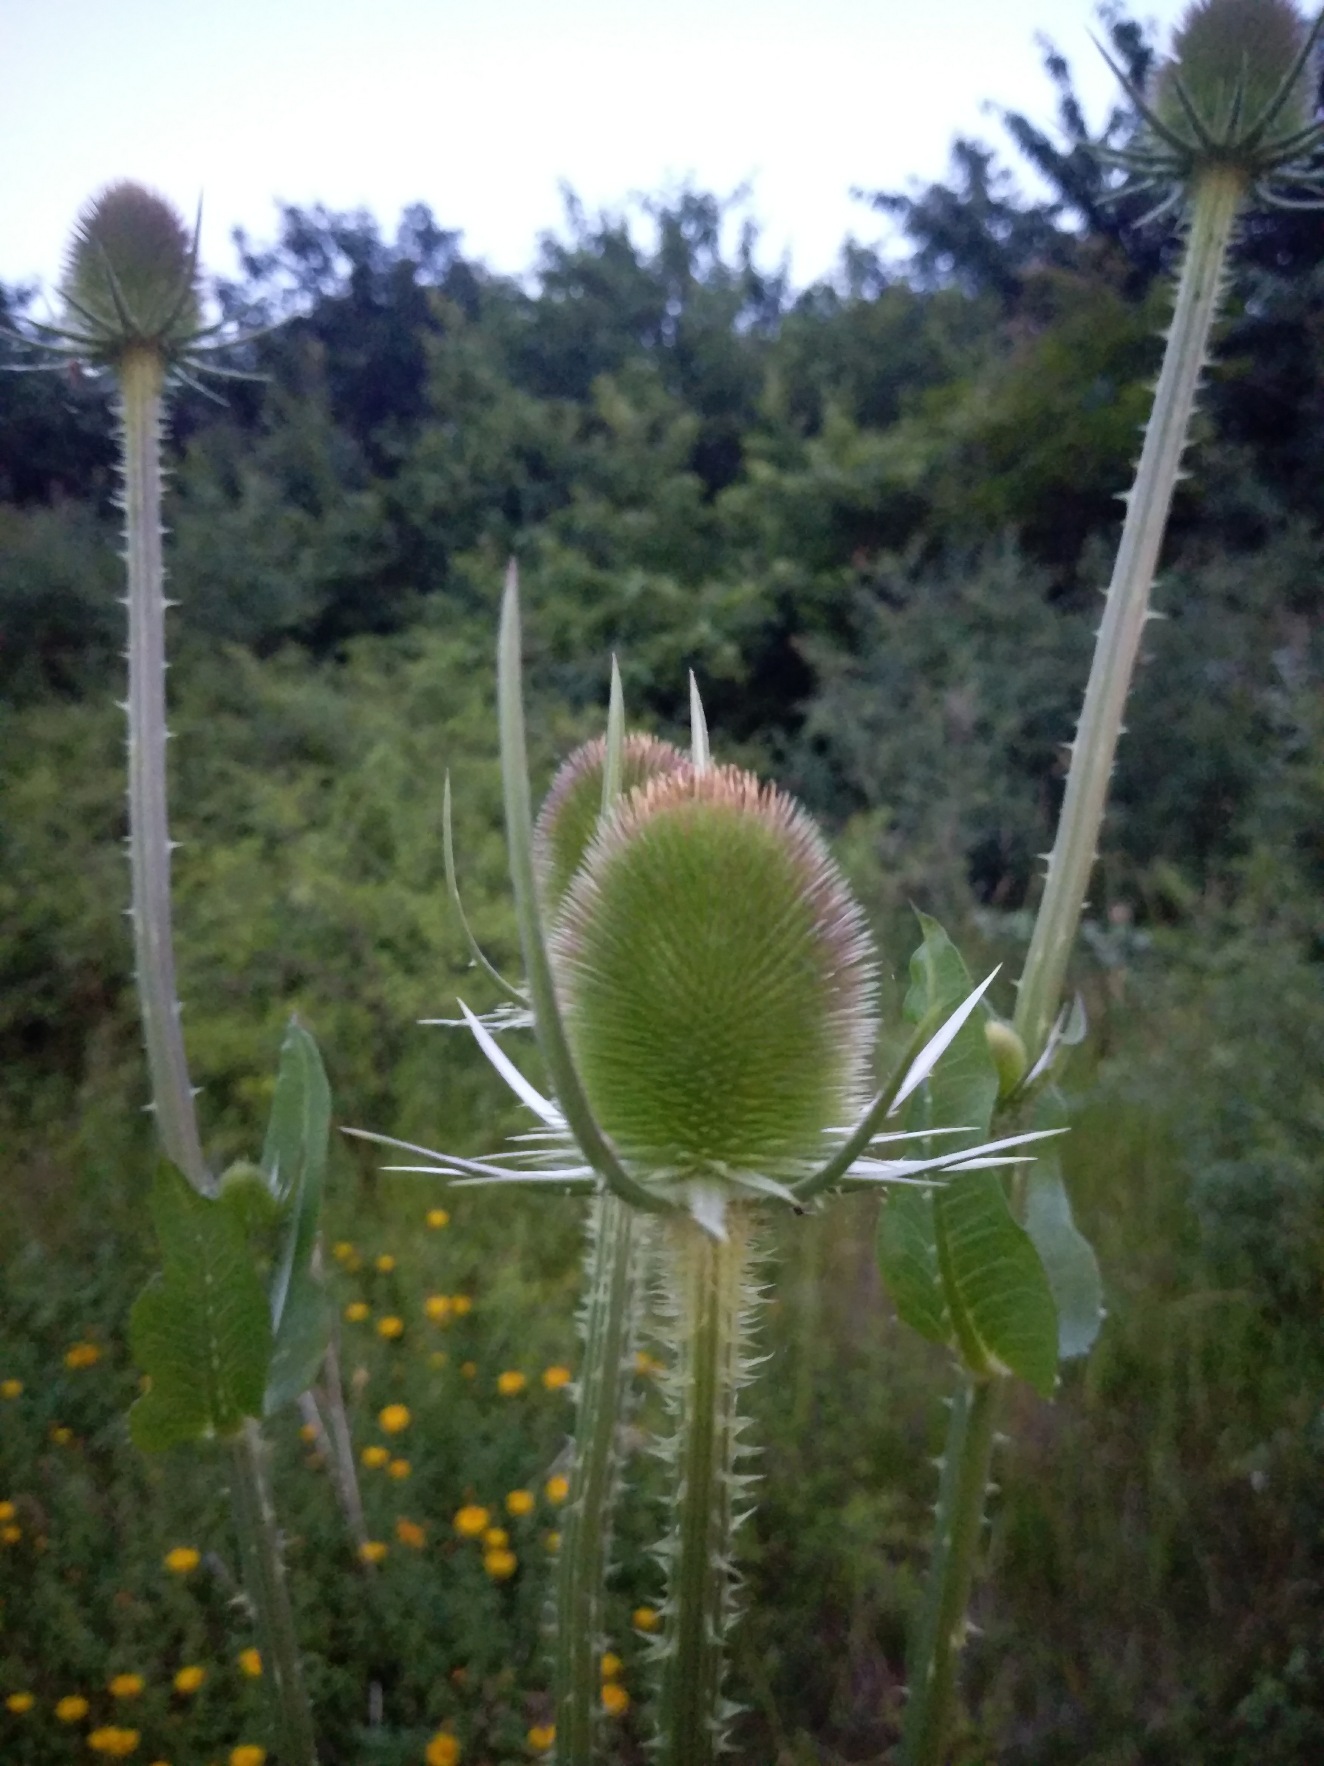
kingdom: Plantae
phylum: Tracheophyta
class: Magnoliopsida
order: Dipsacales
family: Caprifoliaceae
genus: Dipsacus
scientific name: Dipsacus fullonum
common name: Gærde-kartebolle
